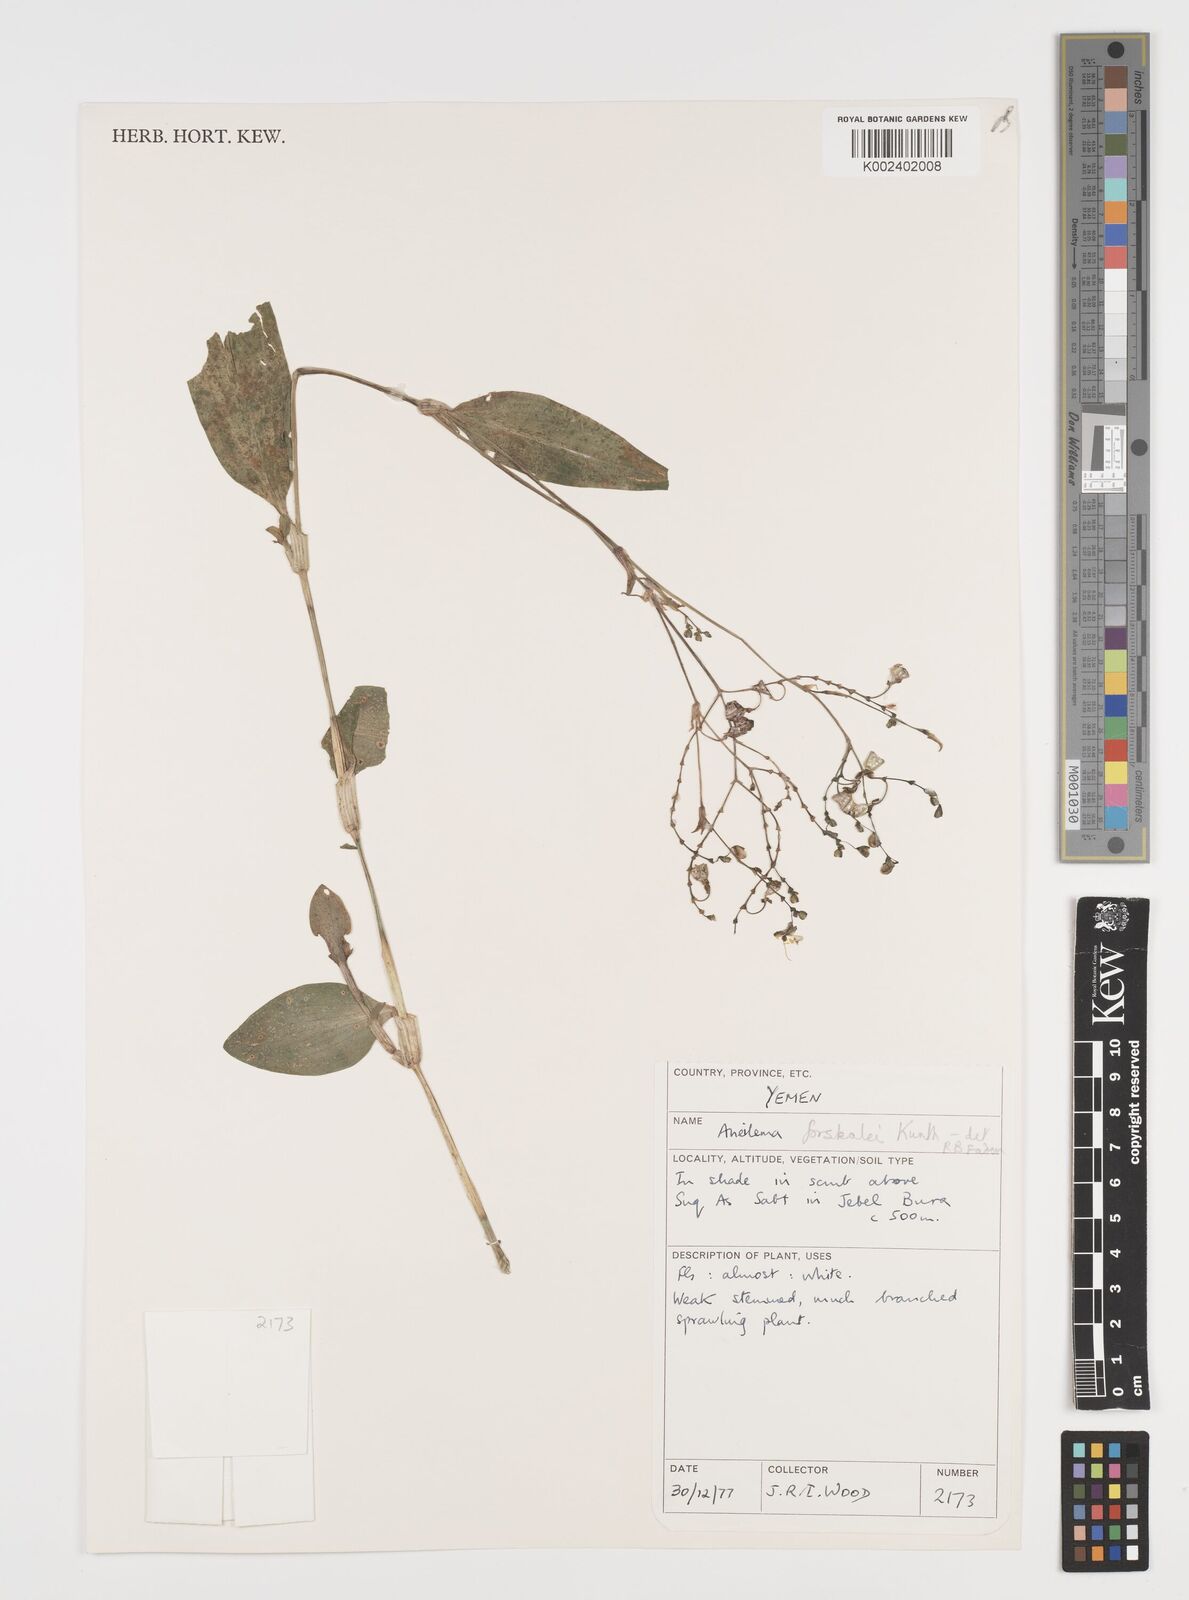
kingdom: Plantae
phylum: Tracheophyta
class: Liliopsida
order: Commelinales
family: Commelinaceae
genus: Aneilema
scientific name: Aneilema forskalii
